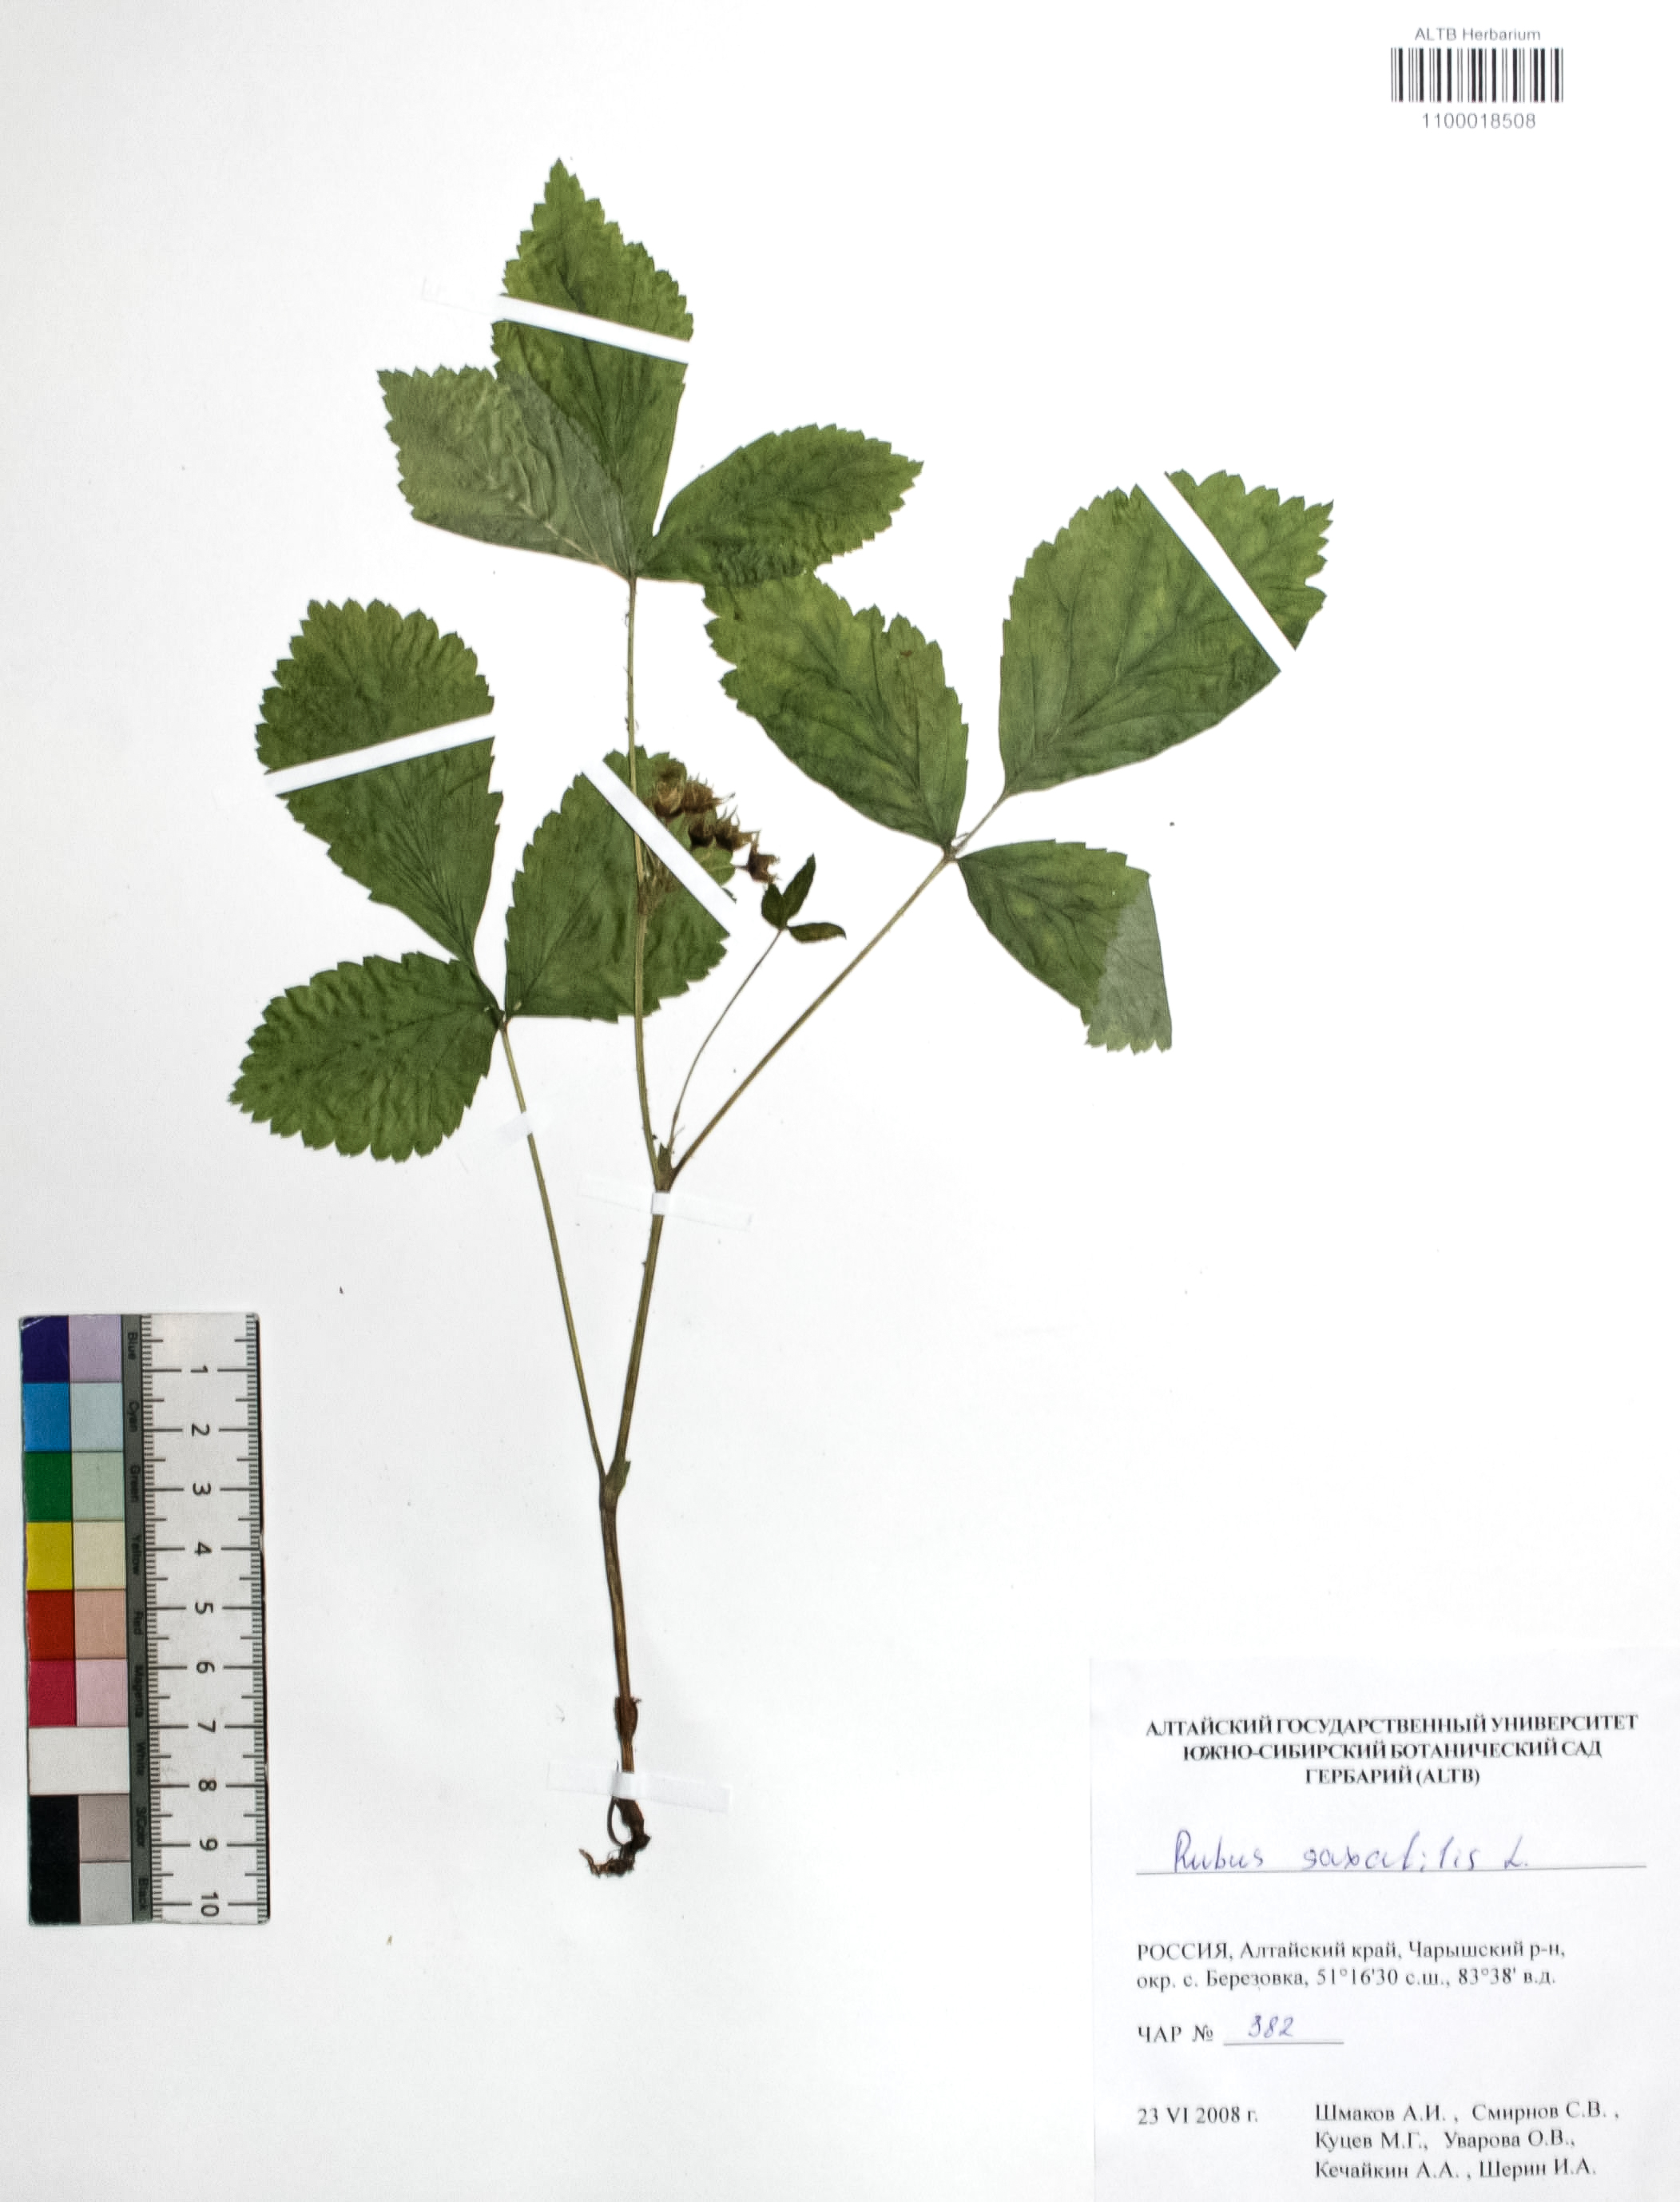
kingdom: Plantae
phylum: Tracheophyta
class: Magnoliopsida
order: Rosales
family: Rosaceae
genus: Rubus
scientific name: Rubus saxatilis
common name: Stone bramble
